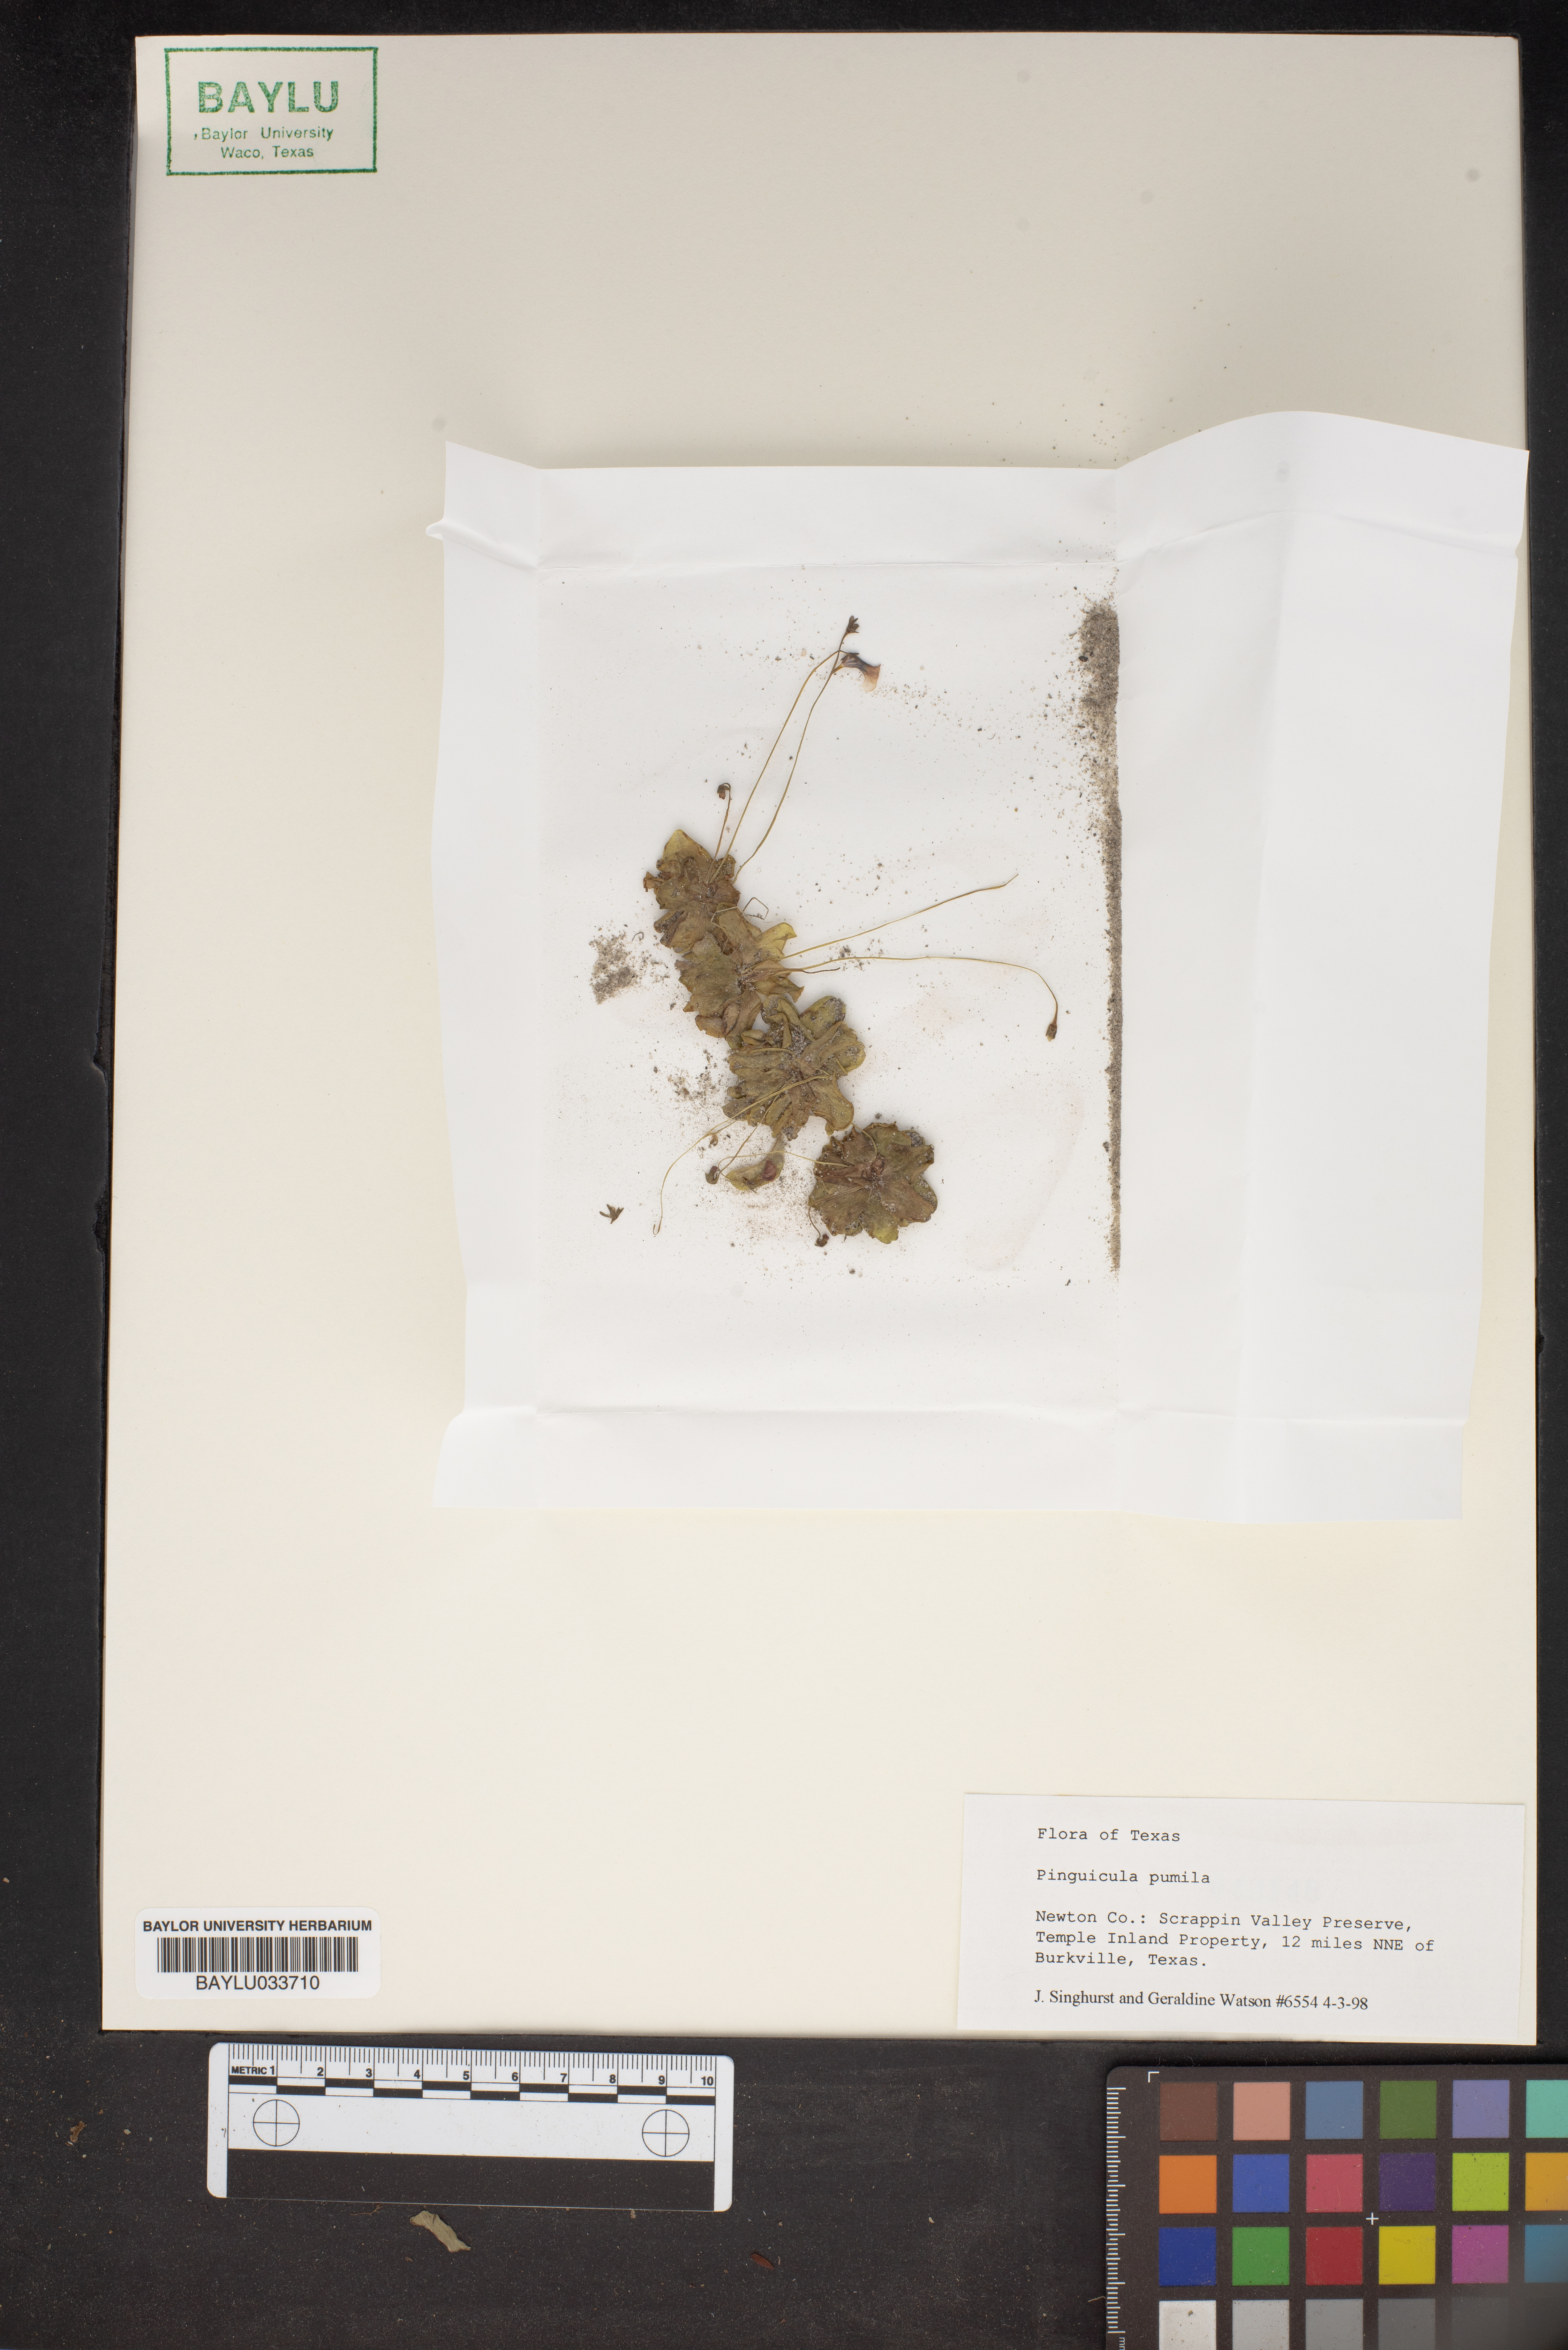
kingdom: Plantae
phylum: Tracheophyta
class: Magnoliopsida
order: Lamiales
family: Lentibulariaceae
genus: Pinguicula
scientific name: Pinguicula pumila
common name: Small butterwort
